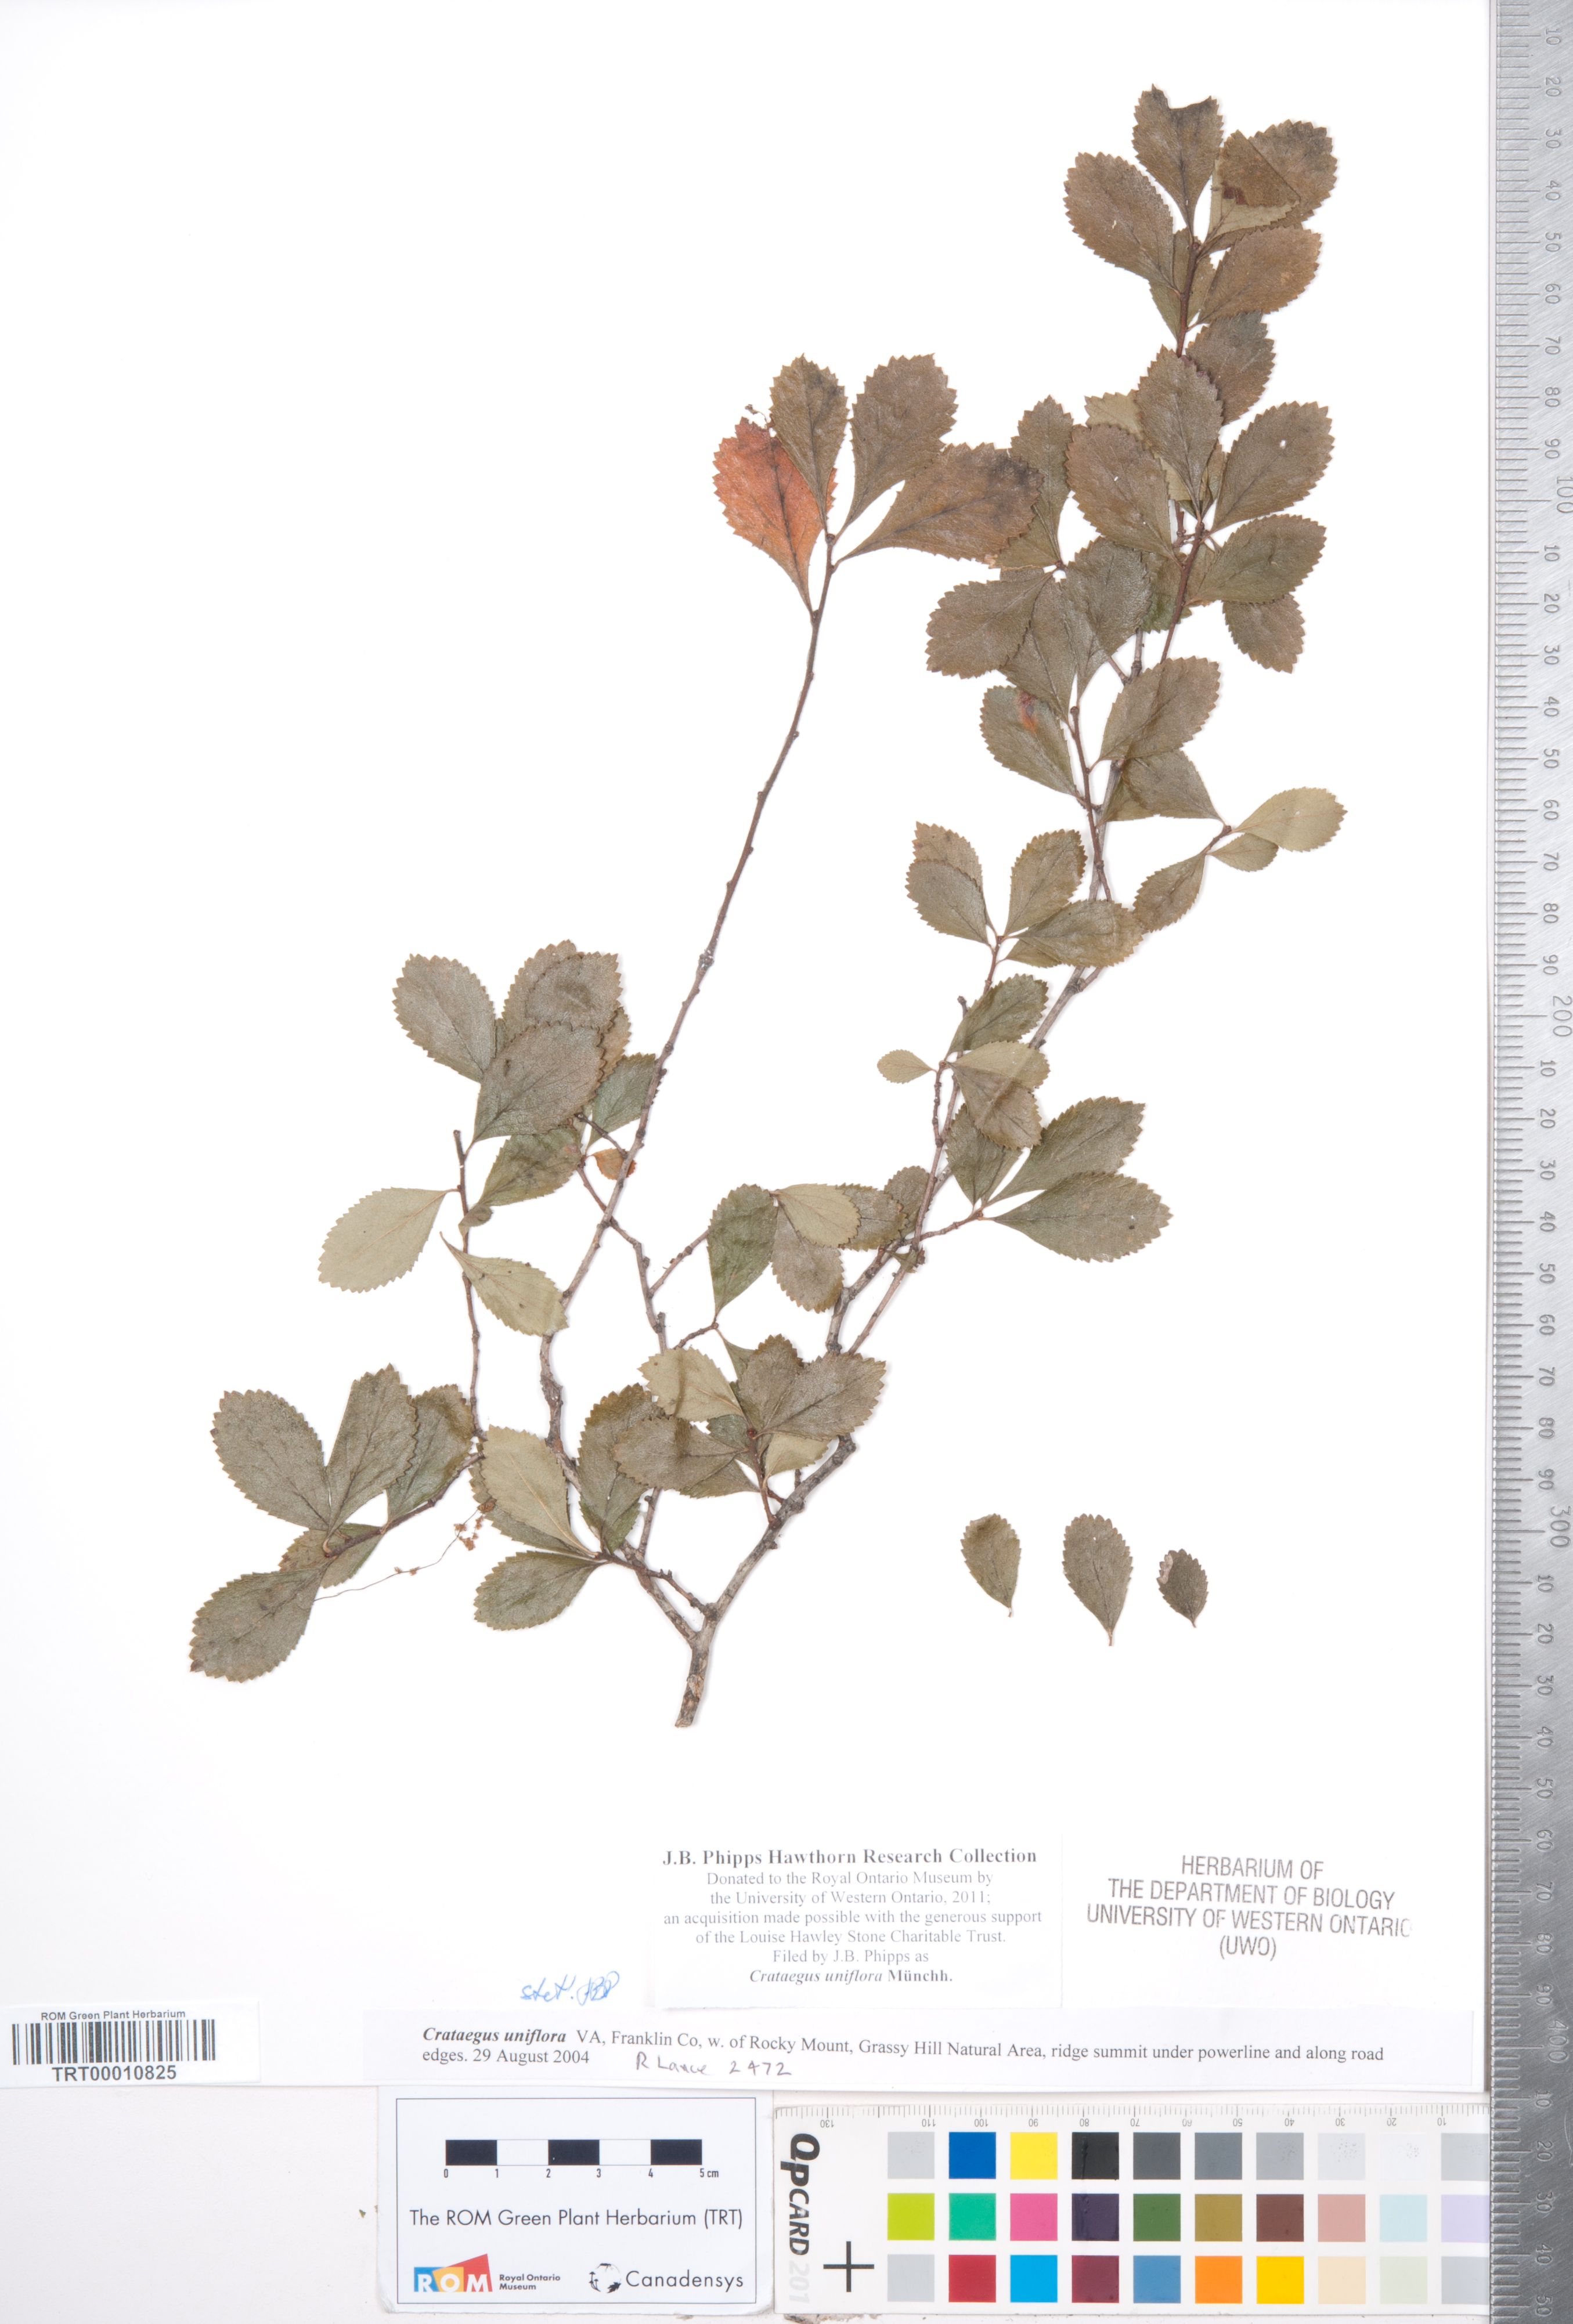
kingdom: Plantae
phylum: Tracheophyta
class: Magnoliopsida
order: Rosales
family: Rosaceae
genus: Crataegus
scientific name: Crataegus uniflora
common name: One-flower hawthorn
